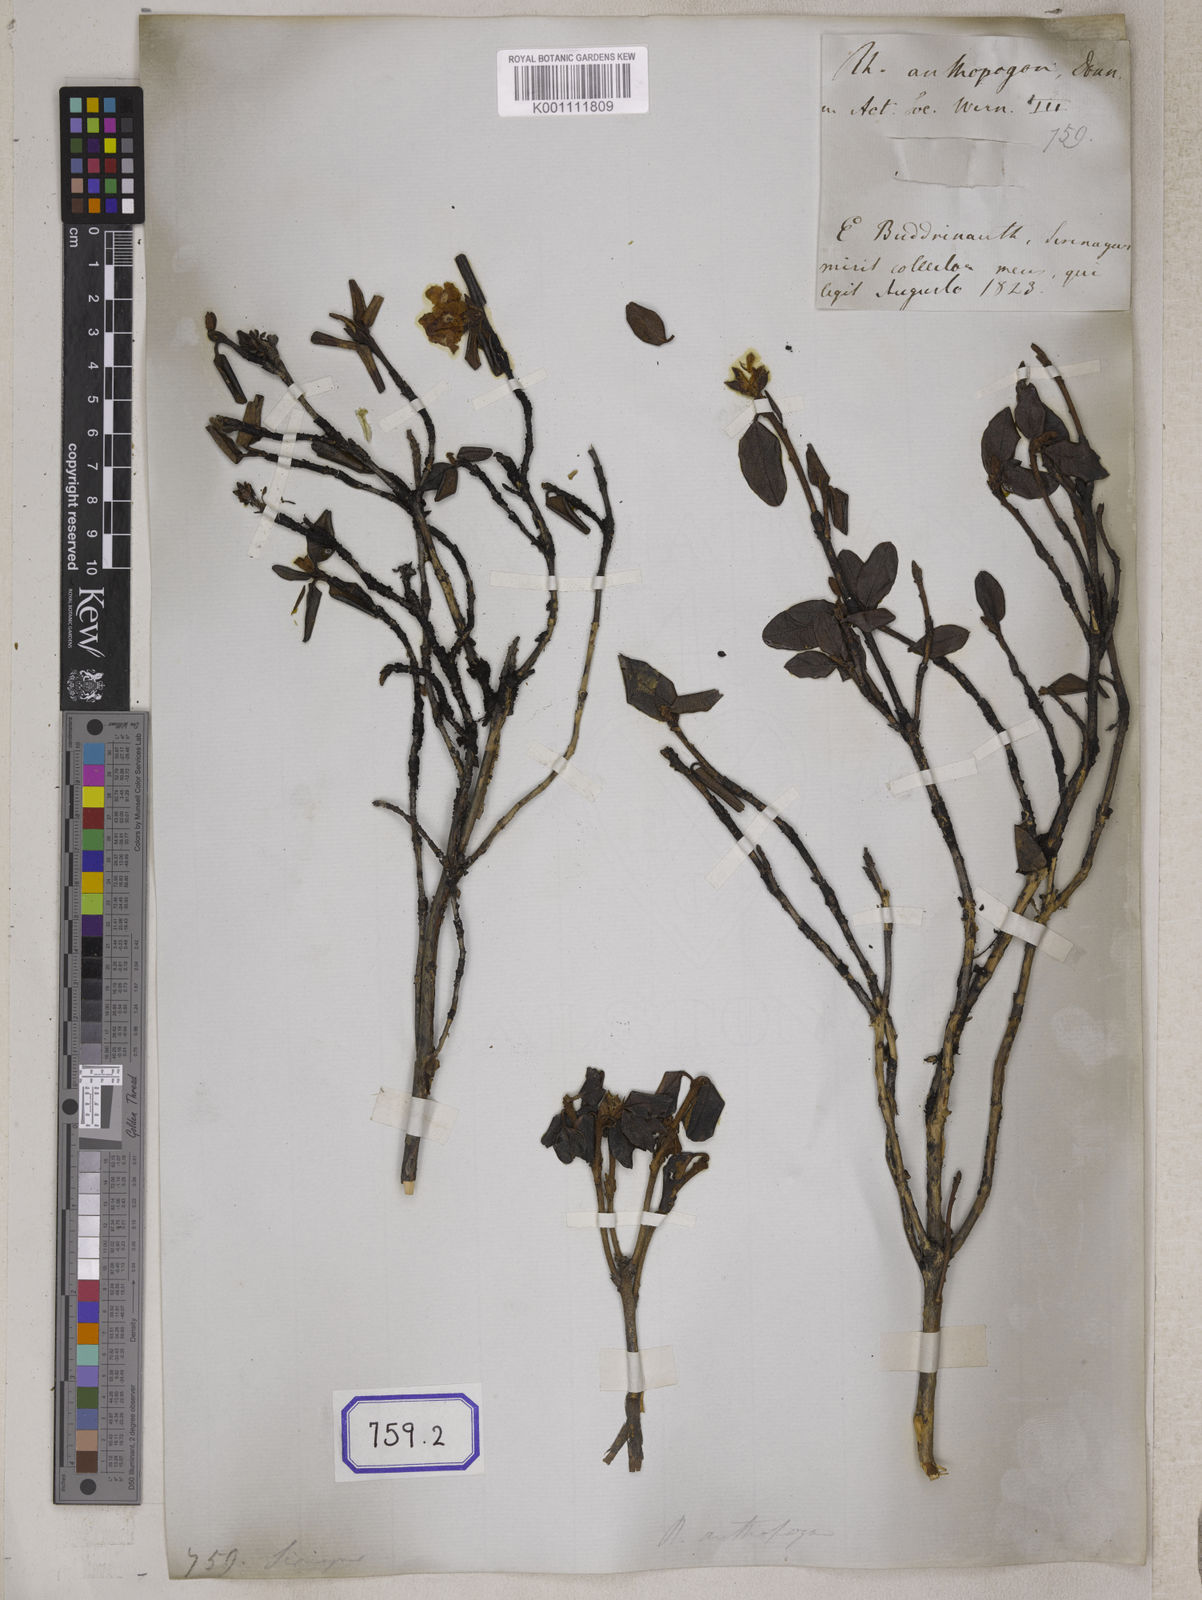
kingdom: Plantae
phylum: Tracheophyta
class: Magnoliopsida
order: Ericales
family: Ericaceae
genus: Rhododendron
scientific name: Rhododendron anthopogon
